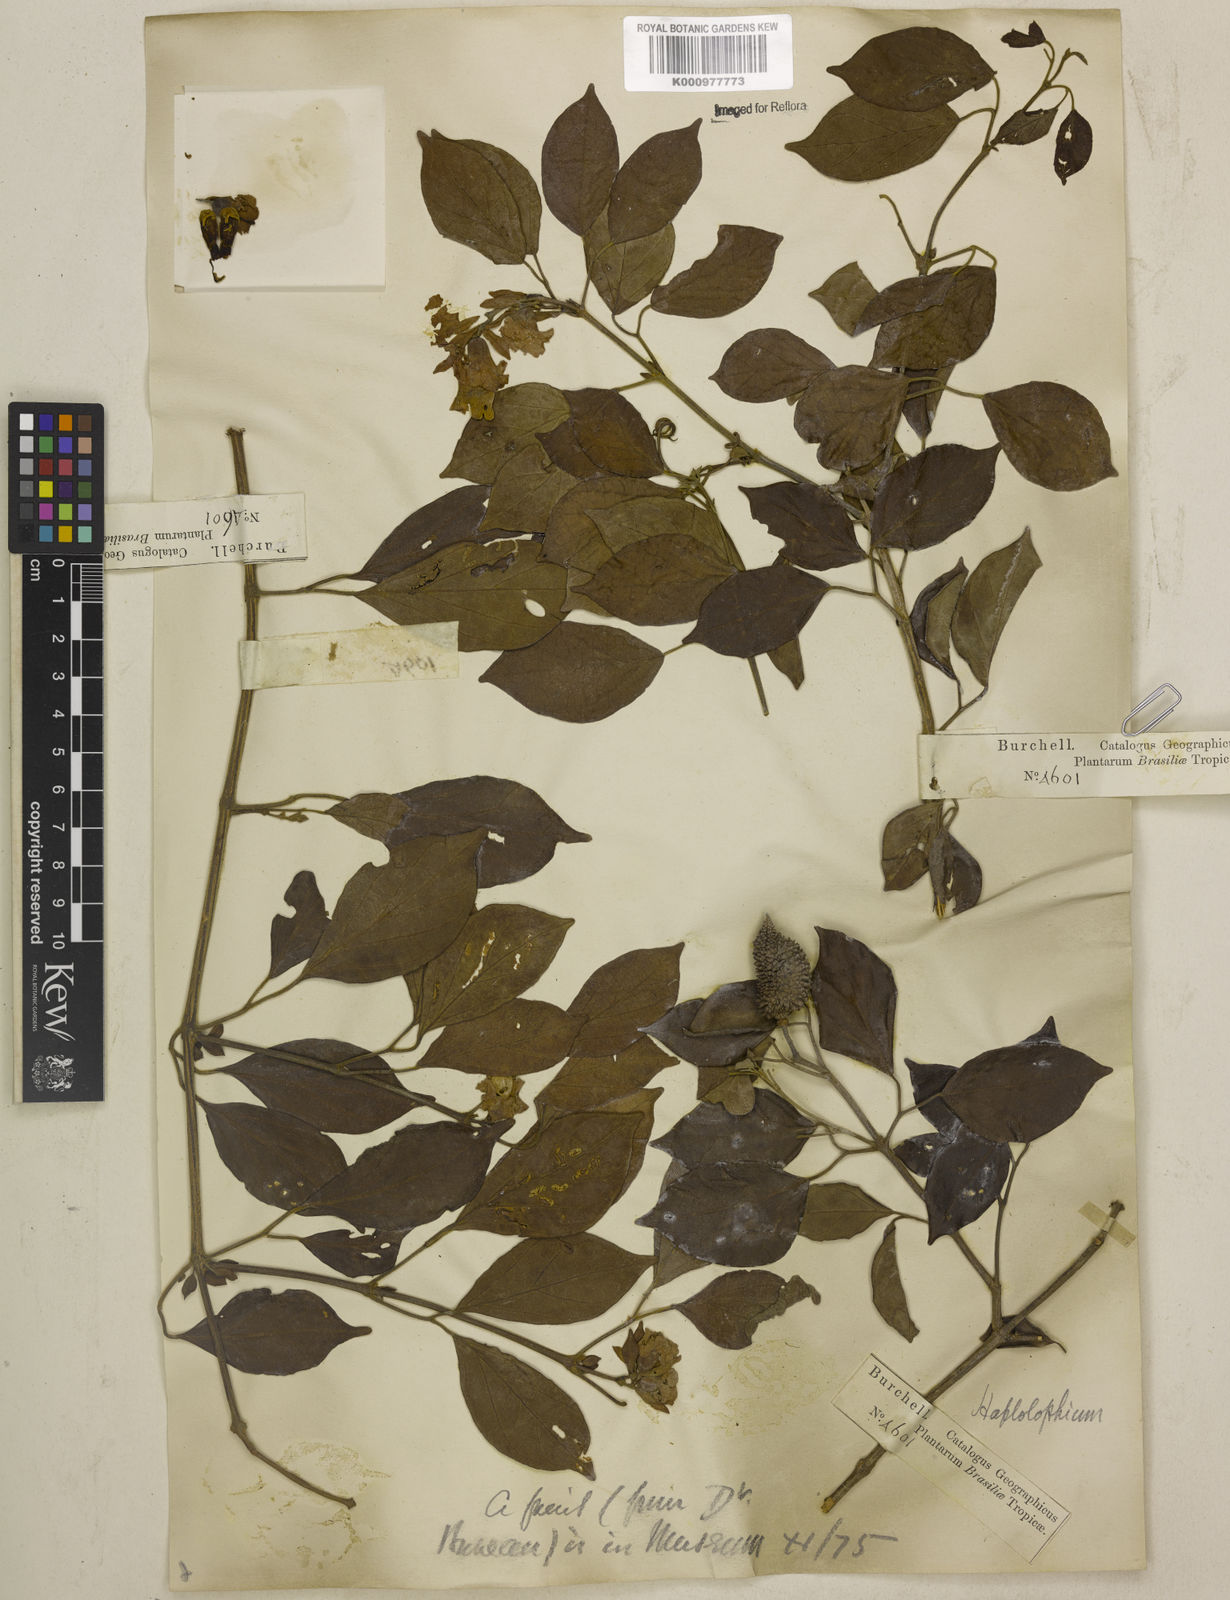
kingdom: Plantae
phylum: Tracheophyta
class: Magnoliopsida
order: Lamiales
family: Bignoniaceae
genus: Amphilophium
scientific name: Amphilophium bracteatum
